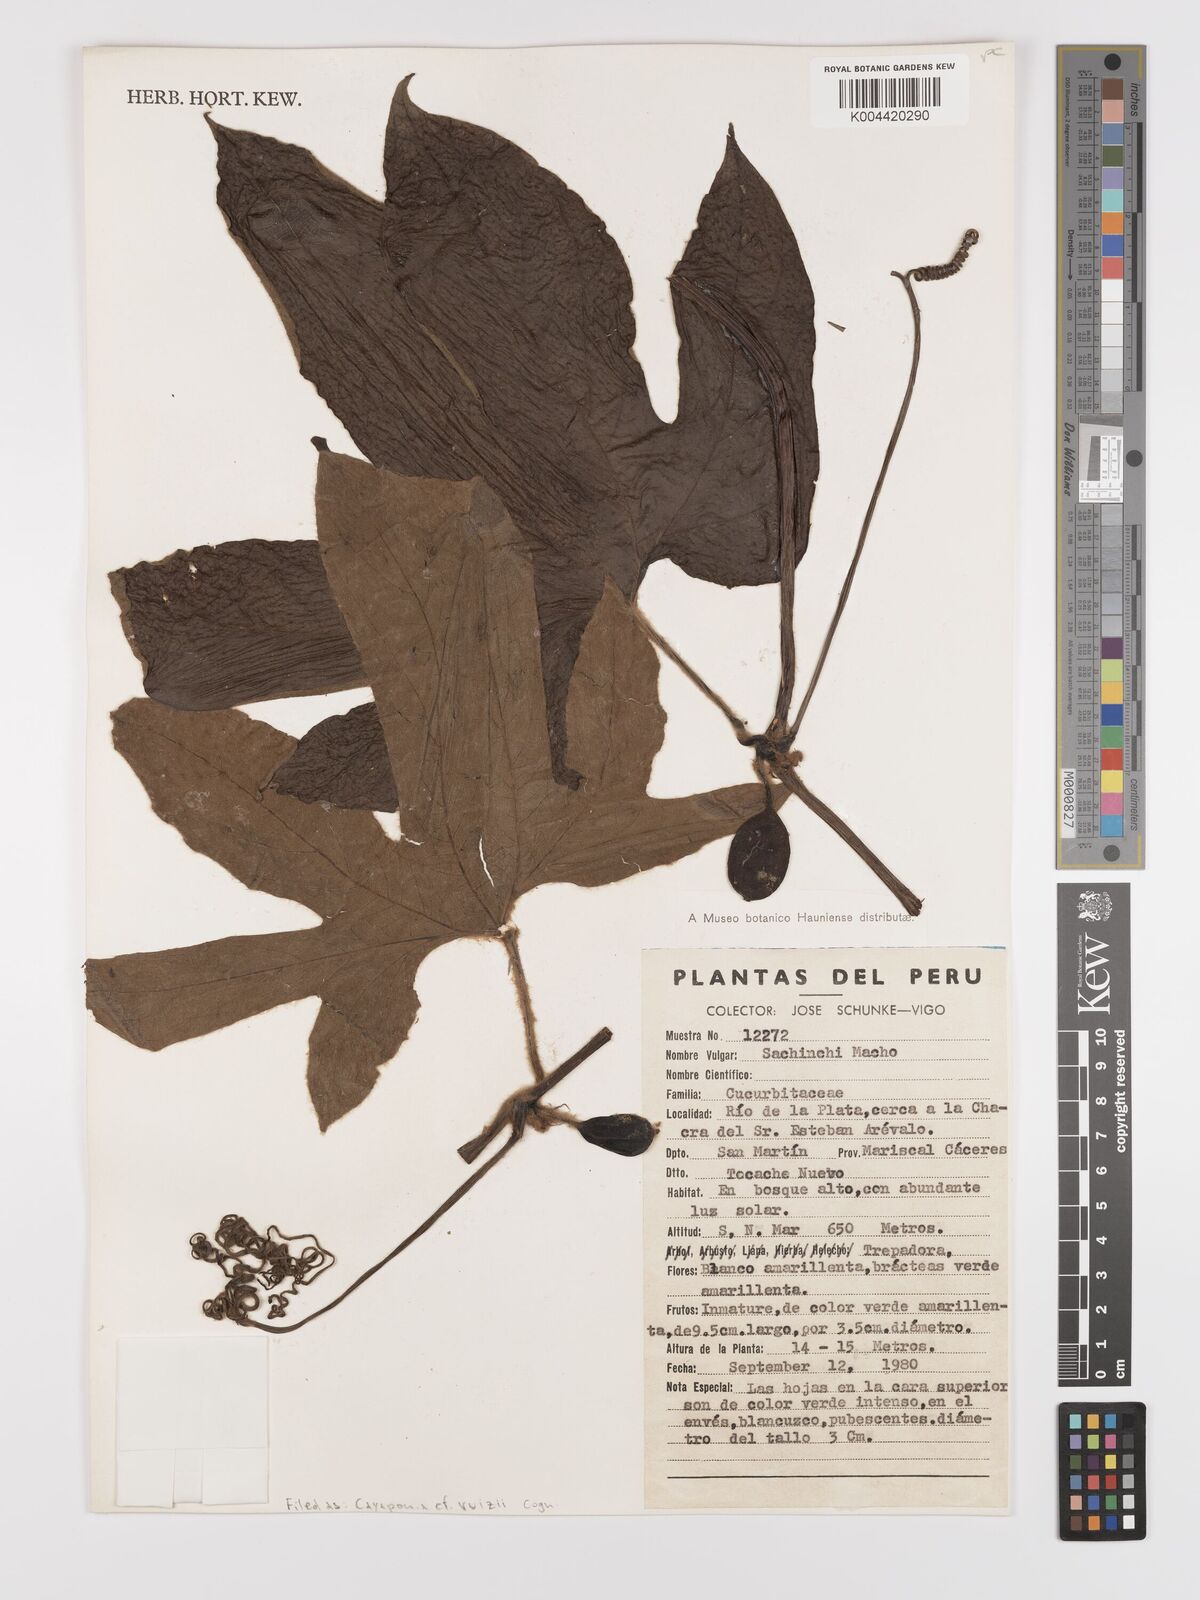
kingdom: Plantae
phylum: Tracheophyta
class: Magnoliopsida
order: Cucurbitales
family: Cucurbitaceae
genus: Cayaponia
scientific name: Cayaponia ruizii
